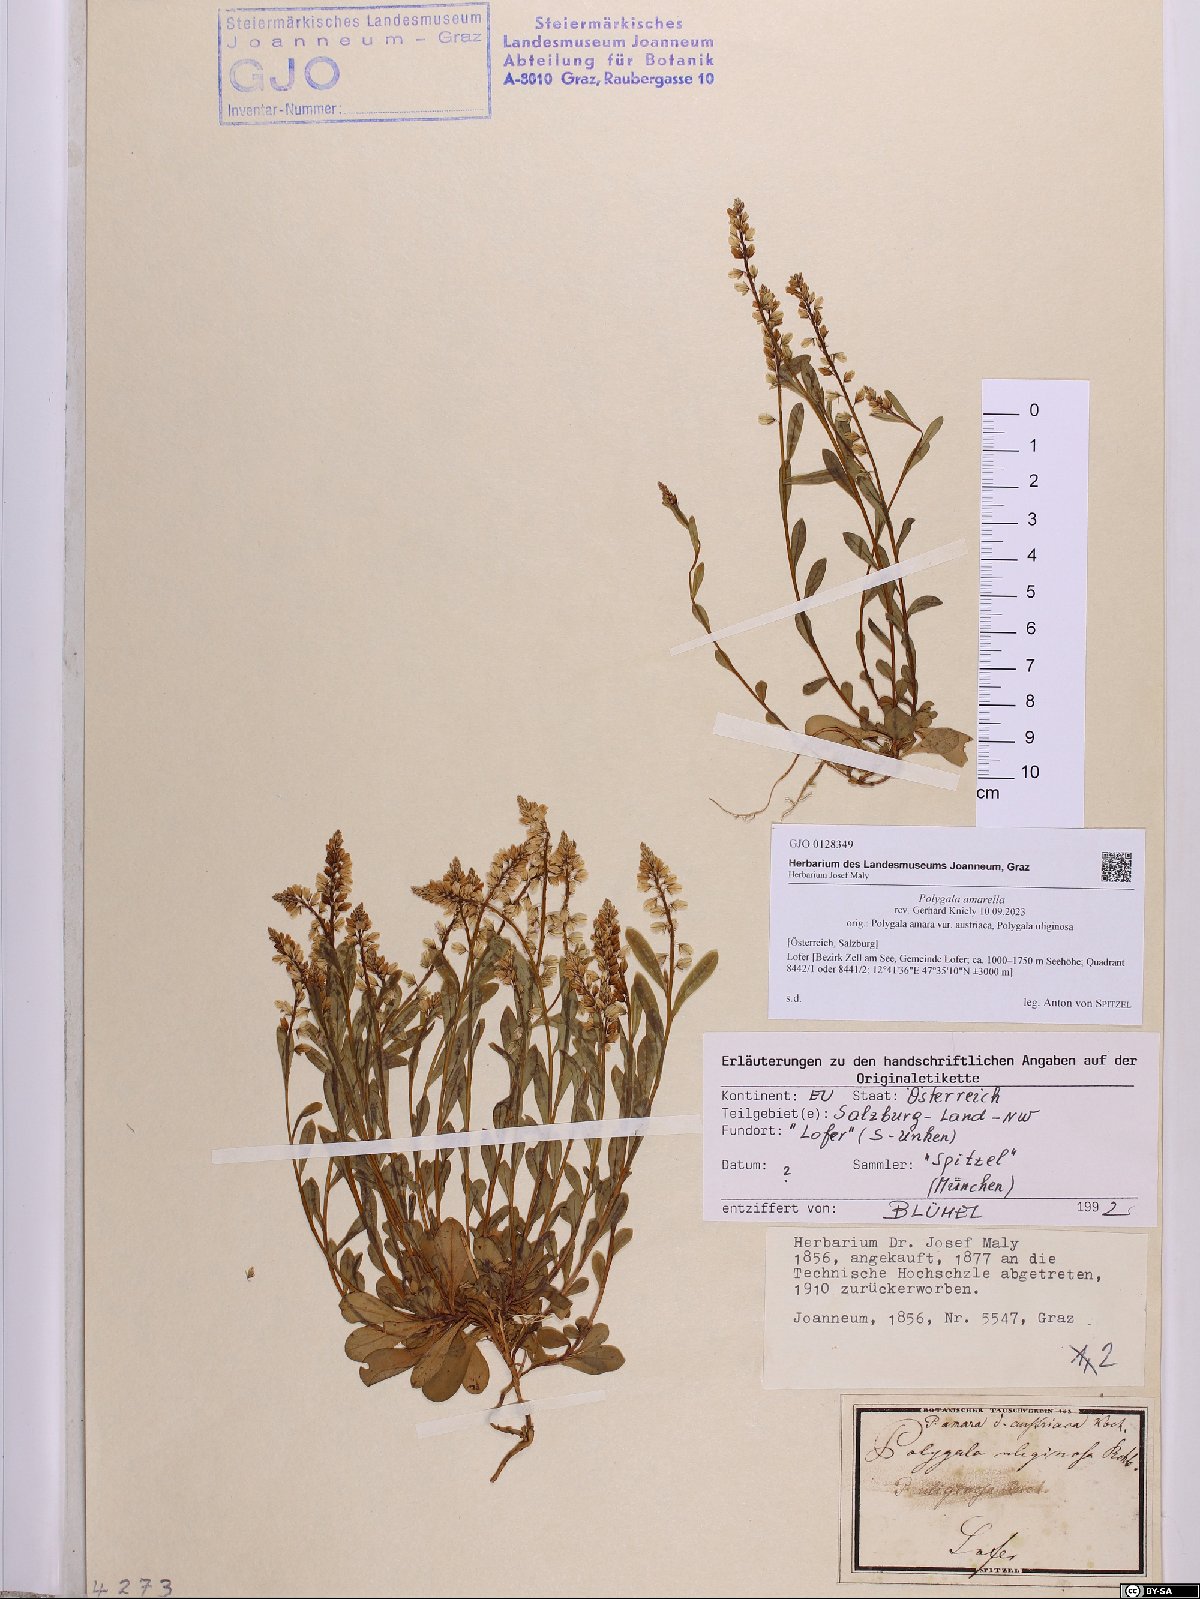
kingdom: Plantae
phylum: Tracheophyta
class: Magnoliopsida
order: Fabales
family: Polygalaceae
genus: Polygala
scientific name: Polygala amarella
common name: Dwarf milkwort
